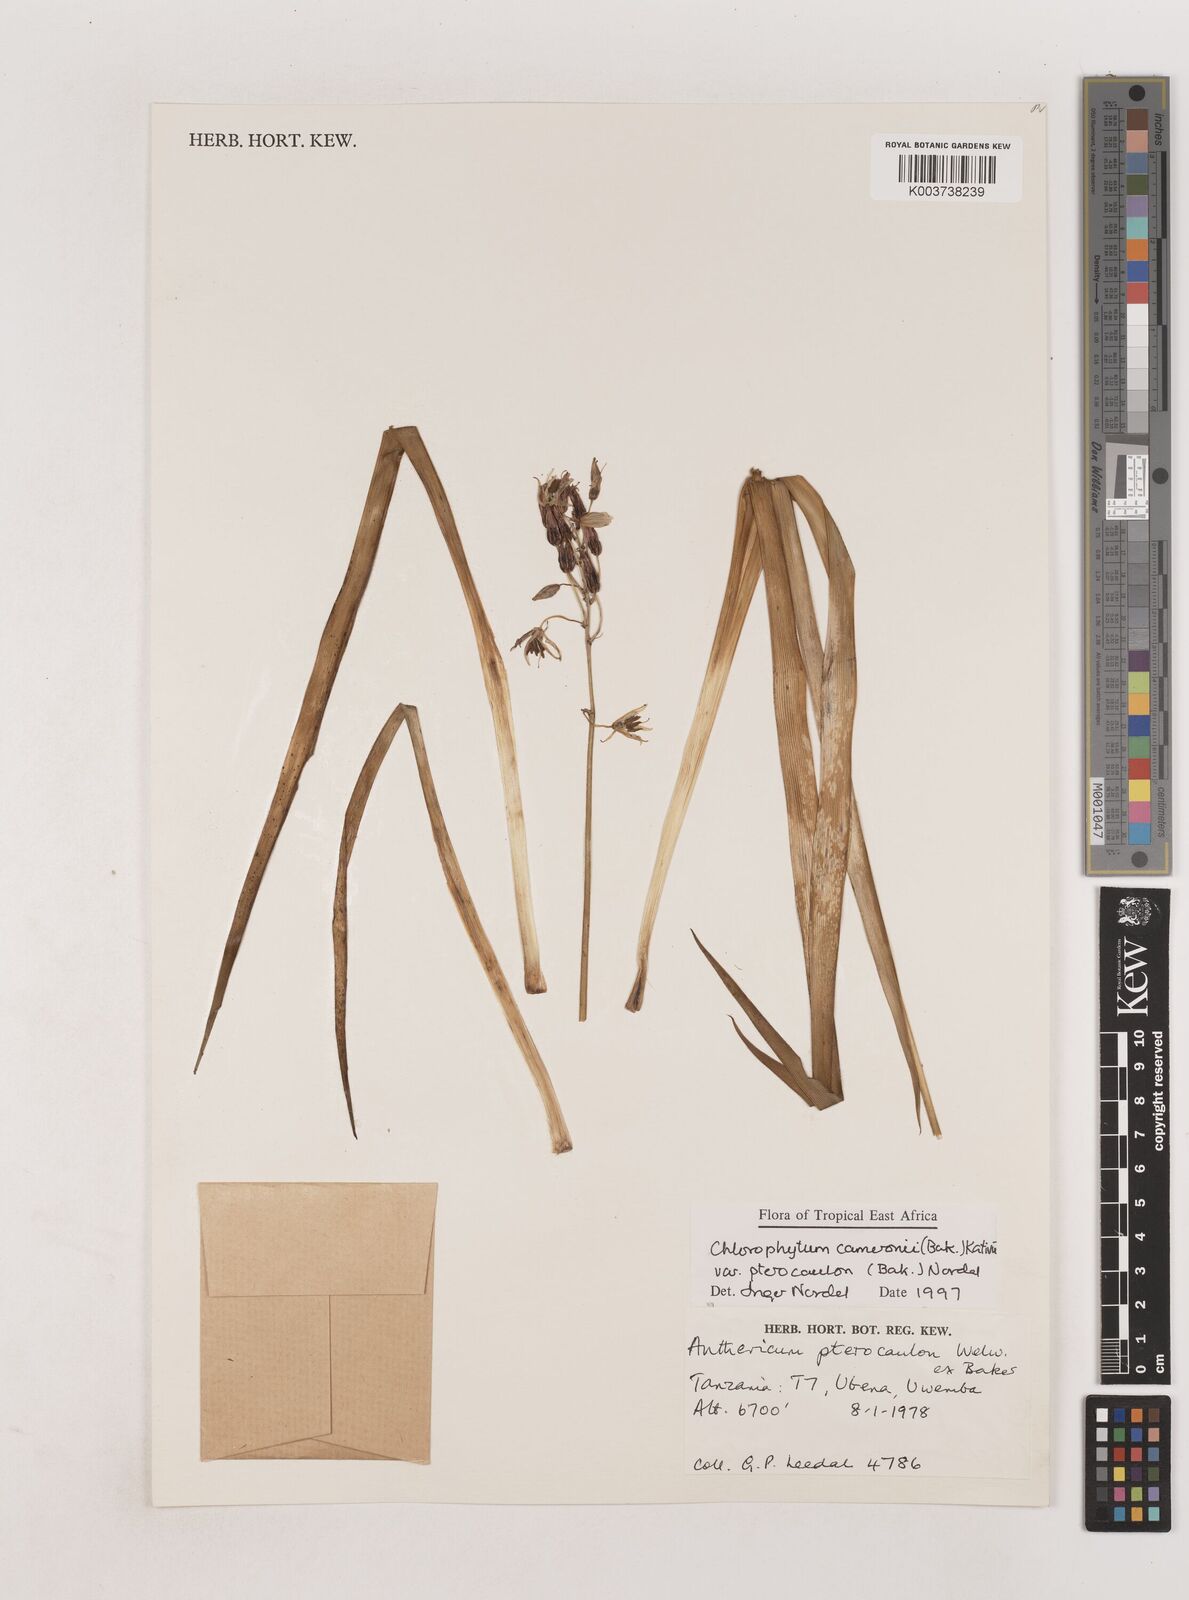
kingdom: Plantae
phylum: Tracheophyta
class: Liliopsida
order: Asparagales
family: Asparagaceae
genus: Chlorophytum
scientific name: Chlorophytum cameronii
